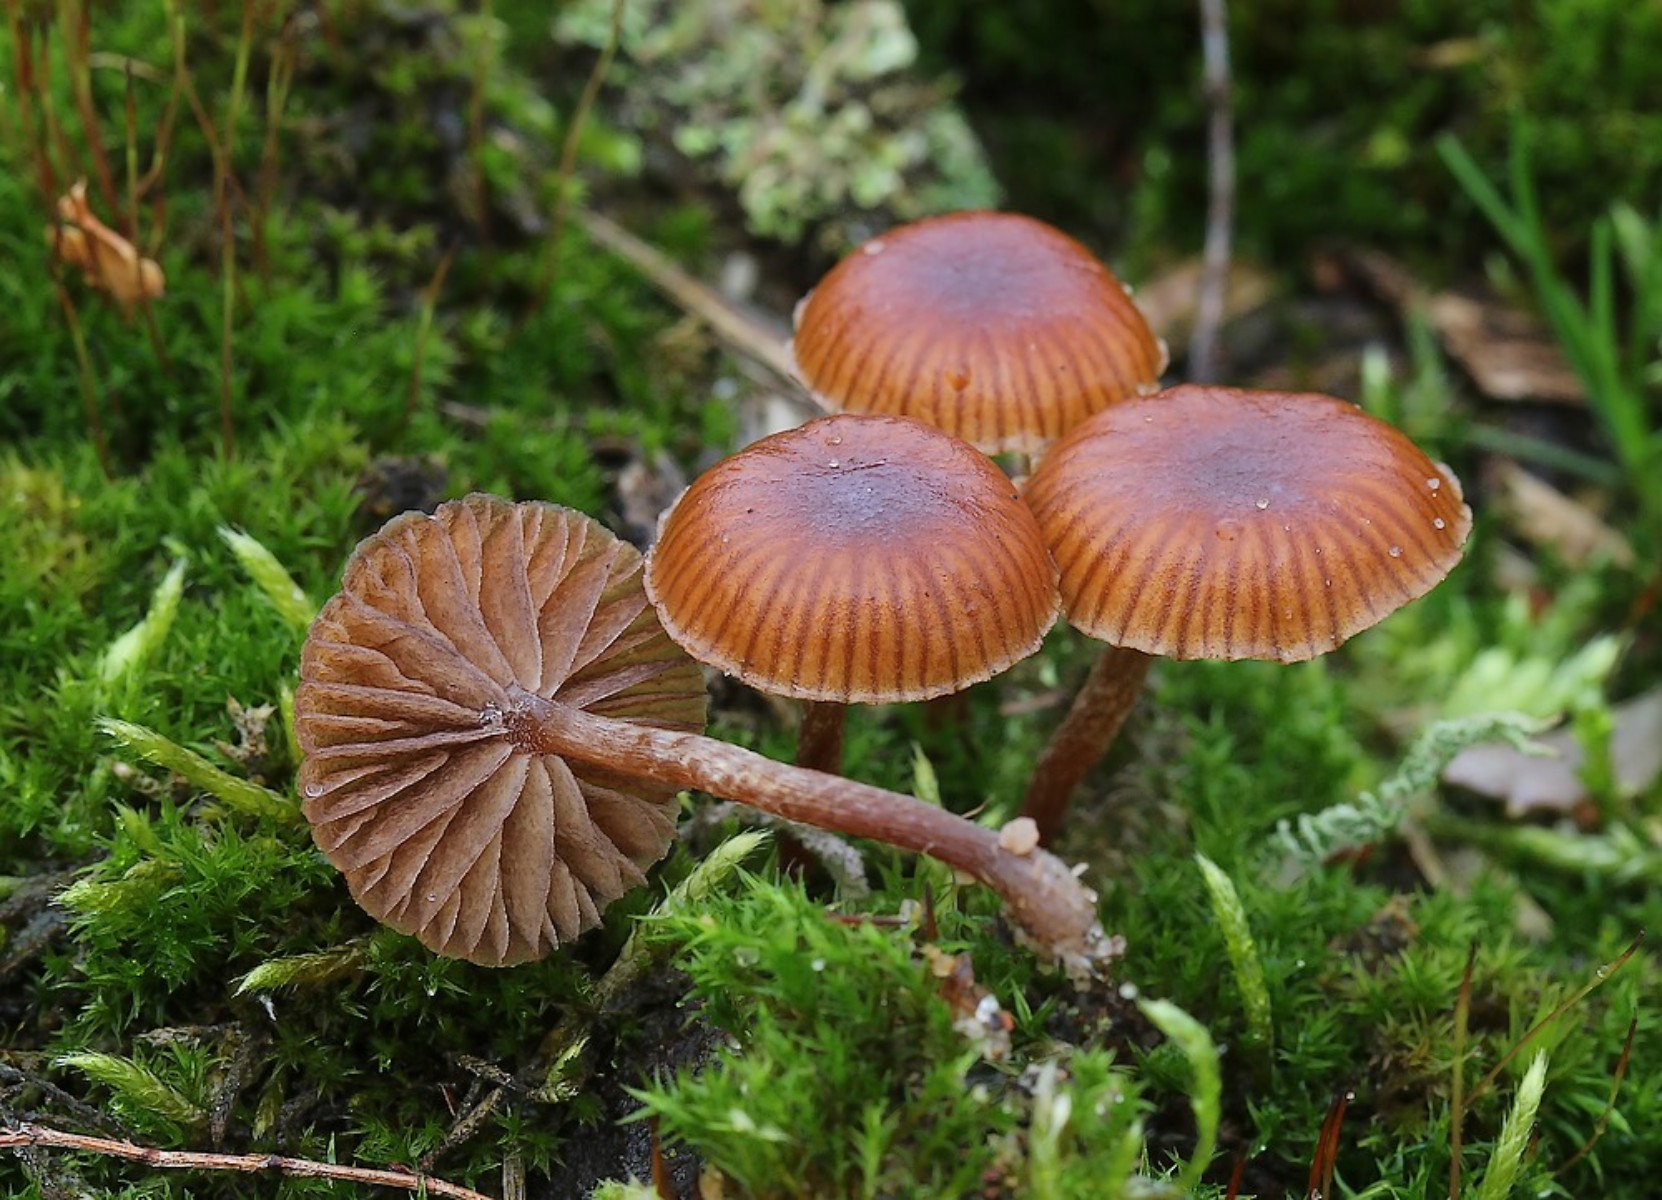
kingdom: Fungi
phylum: Basidiomycota
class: Agaricomycetes
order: Agaricales
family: Strophariaceae
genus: Deconica
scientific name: Deconica montana
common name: rødbrun stråhat
